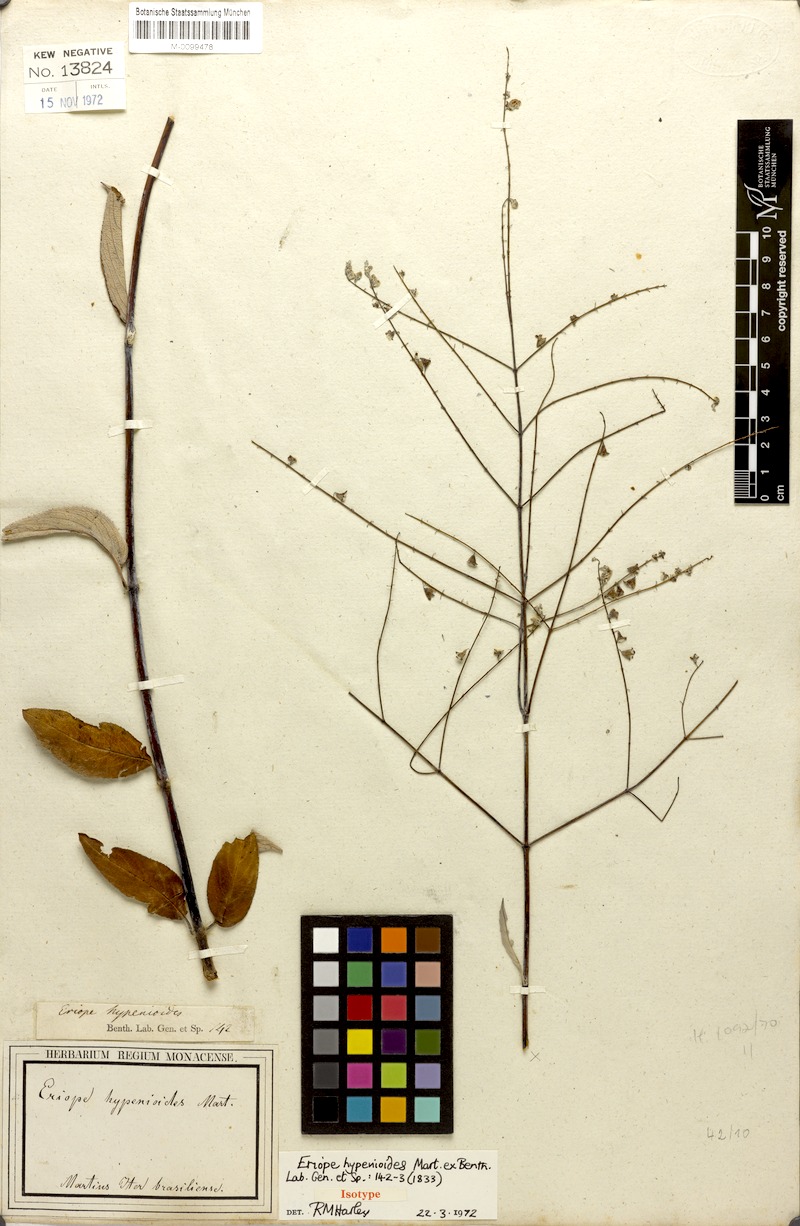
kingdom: Plantae
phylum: Tracheophyta
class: Magnoliopsida
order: Lamiales
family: Lamiaceae
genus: Eriope
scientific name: Eriope hypenioides
